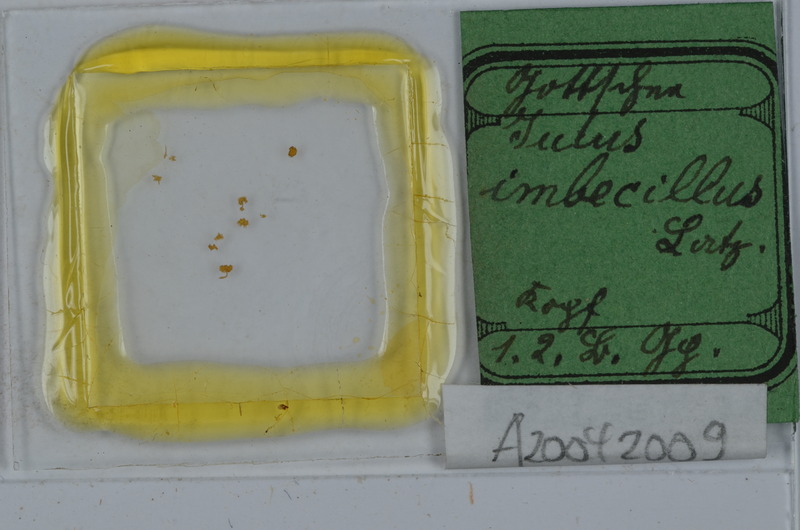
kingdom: Animalia
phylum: Arthropoda
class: Diplopoda
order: Julida
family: Julidae
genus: Microiulus
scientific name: Microiulus imbecillus
